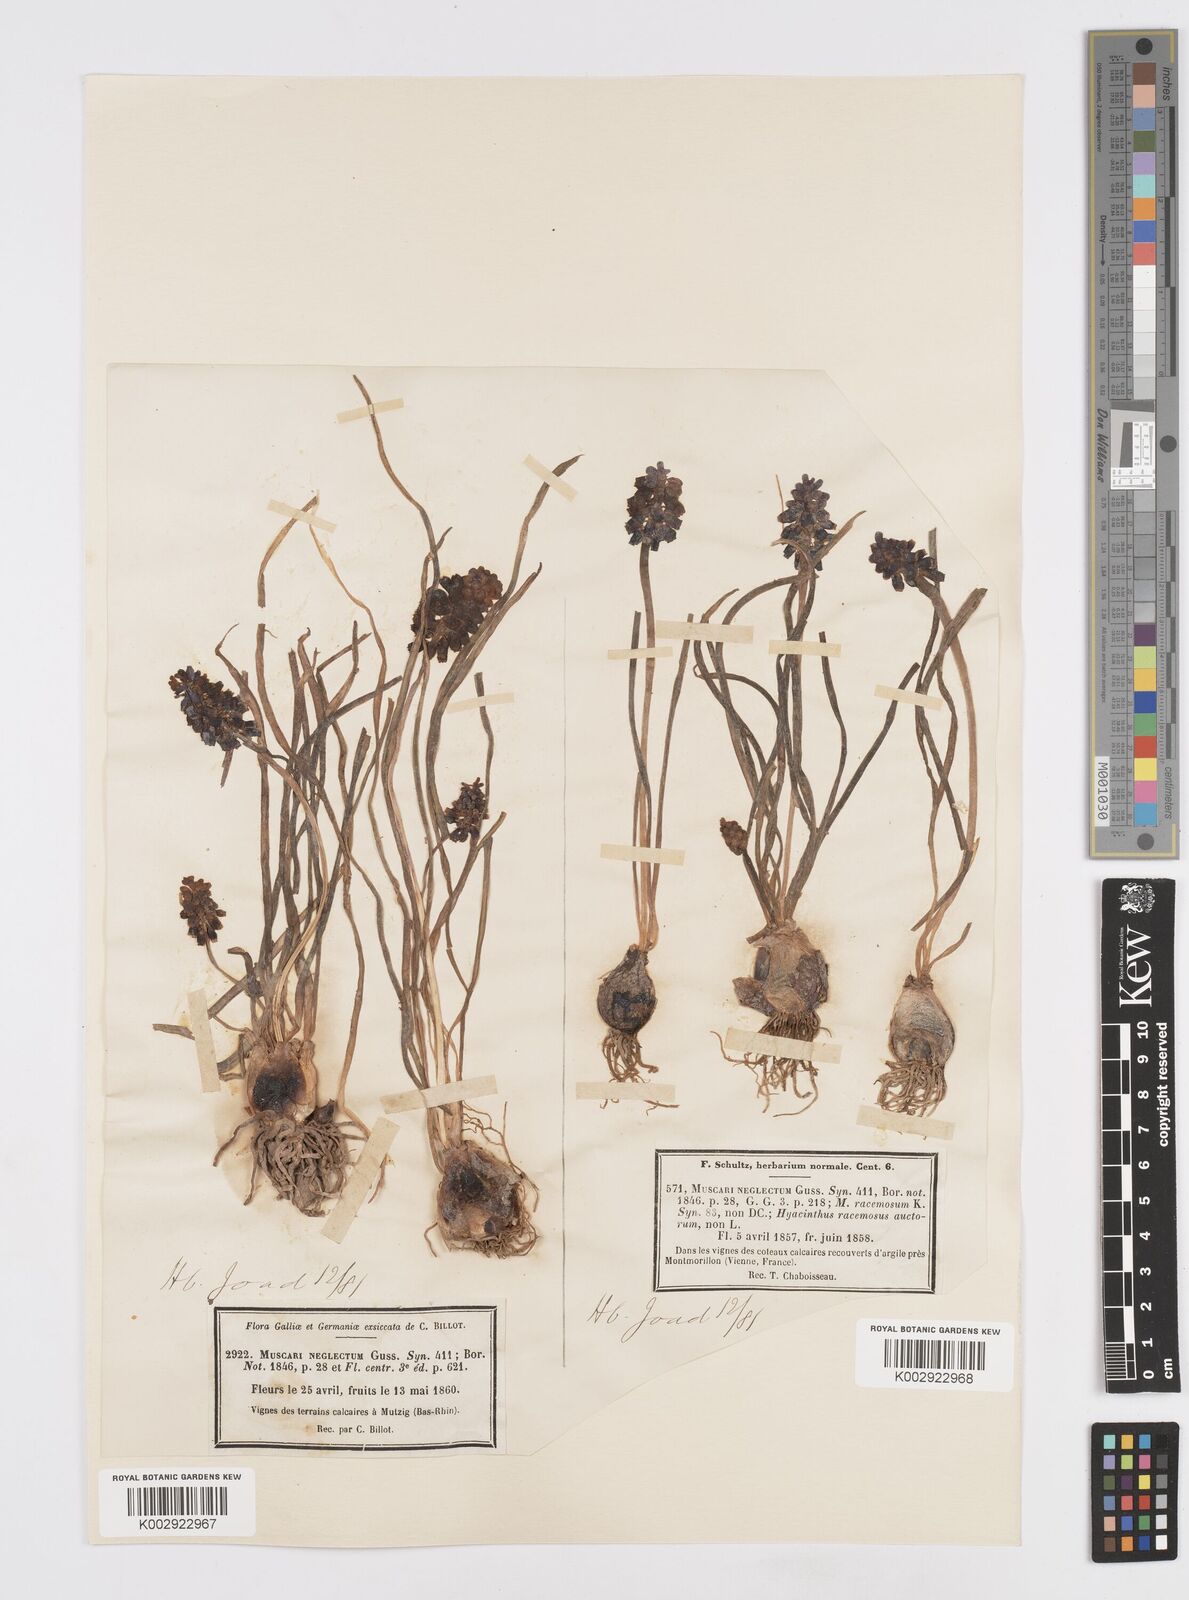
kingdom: Plantae
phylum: Tracheophyta
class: Liliopsida
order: Asparagales
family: Asparagaceae
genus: Muscari
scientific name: Muscari neglectum
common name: Grape-hyacinth
